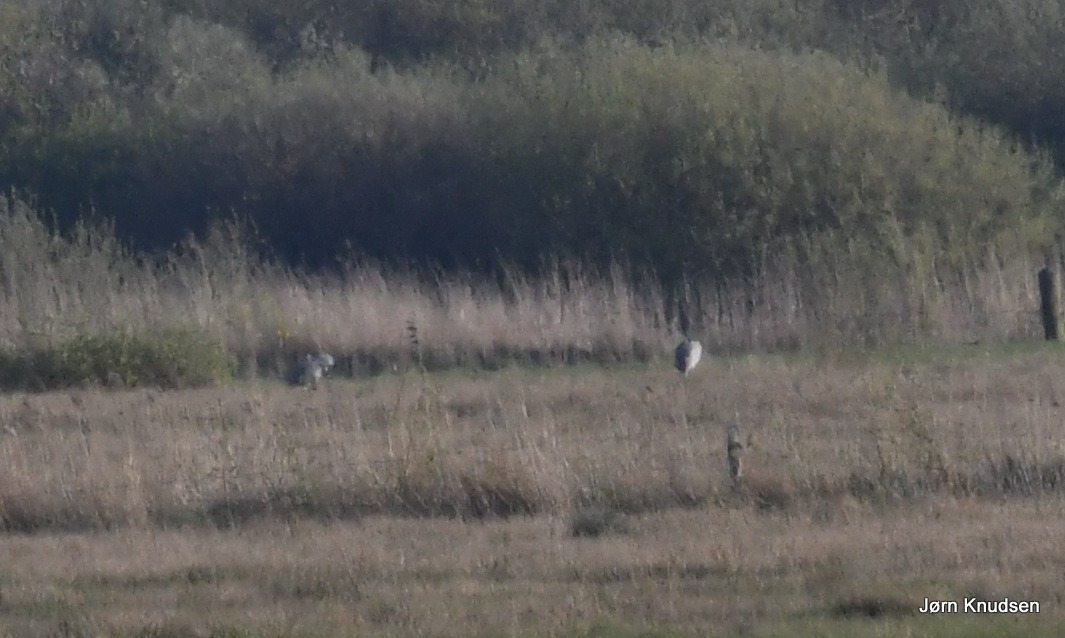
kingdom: Animalia
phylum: Chordata
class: Aves
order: Gruiformes
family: Gruidae
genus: Grus
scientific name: Grus grus
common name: Trane
